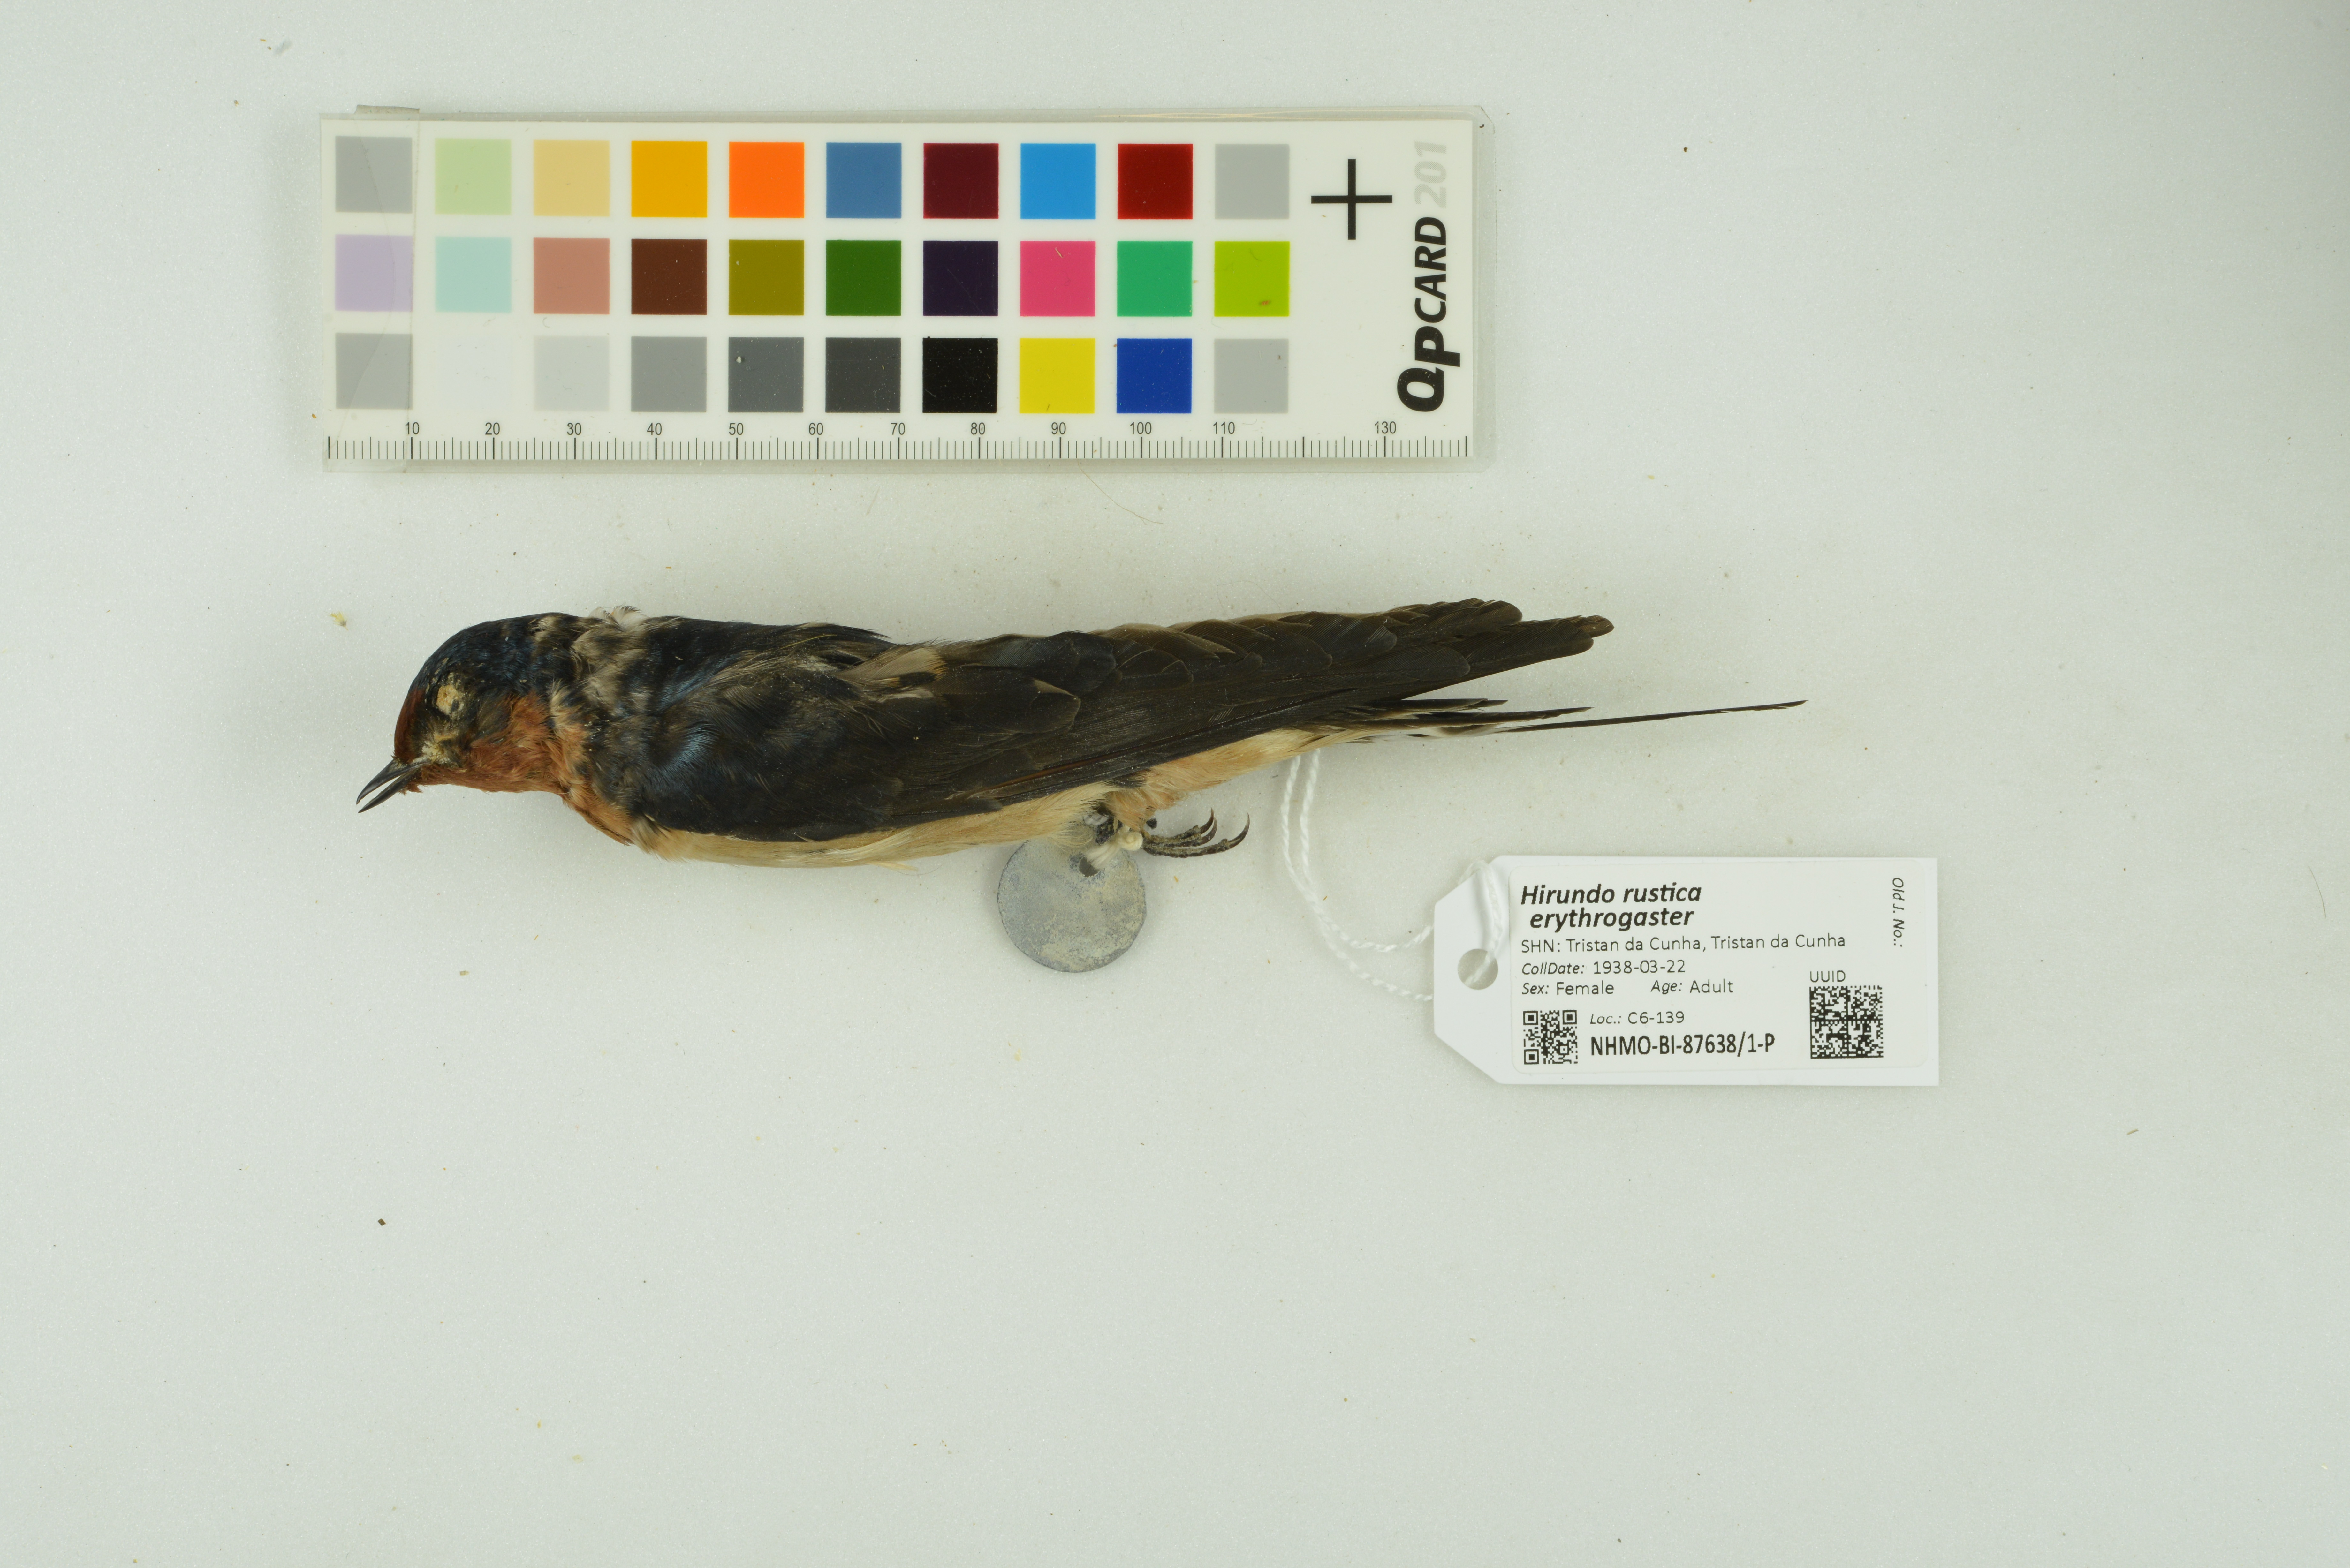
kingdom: Animalia
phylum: Chordata
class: Aves
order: Passeriformes
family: Hirundinidae
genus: Hirundo
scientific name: Hirundo rustica
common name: Barn swallow
